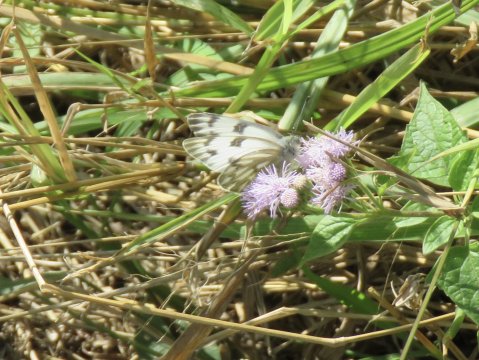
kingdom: Animalia
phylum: Arthropoda
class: Insecta
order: Lepidoptera
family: Pieridae
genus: Pontia
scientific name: Pontia protodice
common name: Checkered White
